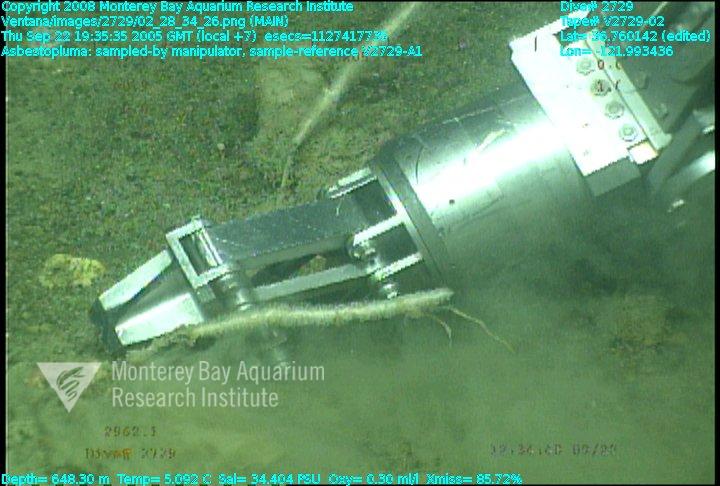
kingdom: Animalia
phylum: Porifera
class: Demospongiae
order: Poecilosclerida
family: Cladorhizidae
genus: Asbestopluma
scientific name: Asbestopluma
